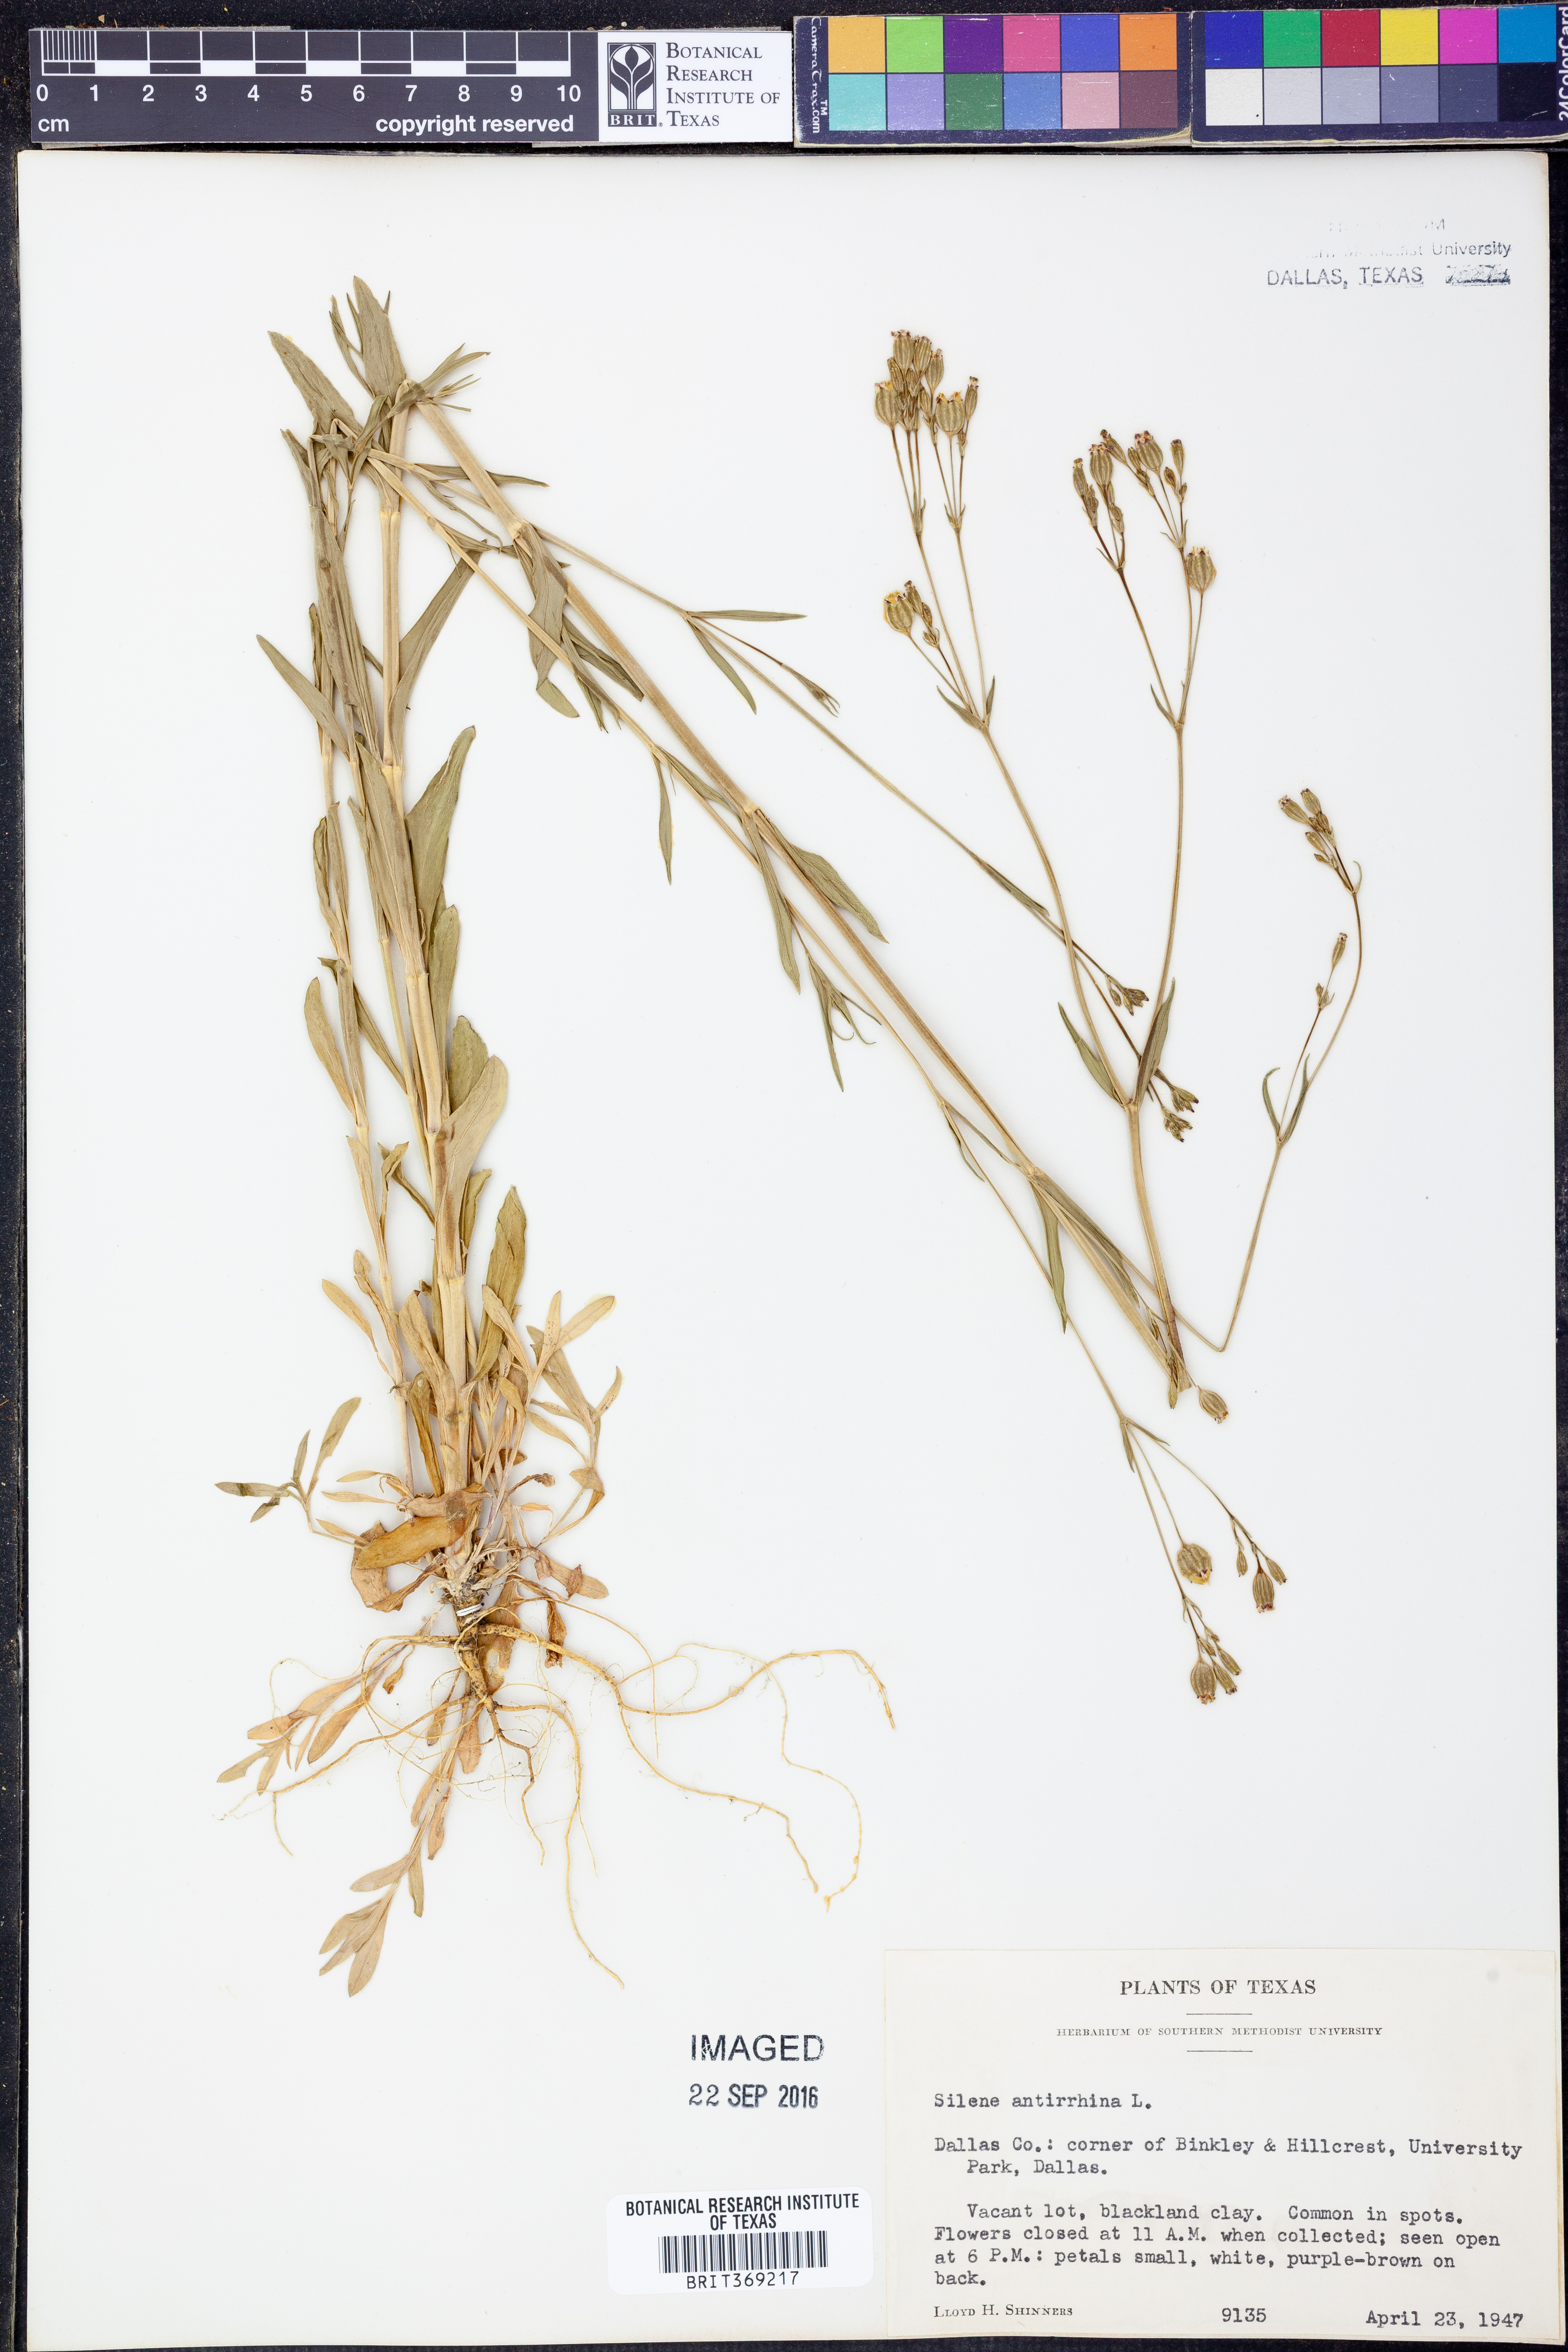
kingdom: Plantae
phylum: Tracheophyta
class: Magnoliopsida
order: Caryophyllales
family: Caryophyllaceae
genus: Silene
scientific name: Silene antirrhina
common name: Sleepy catchfly
